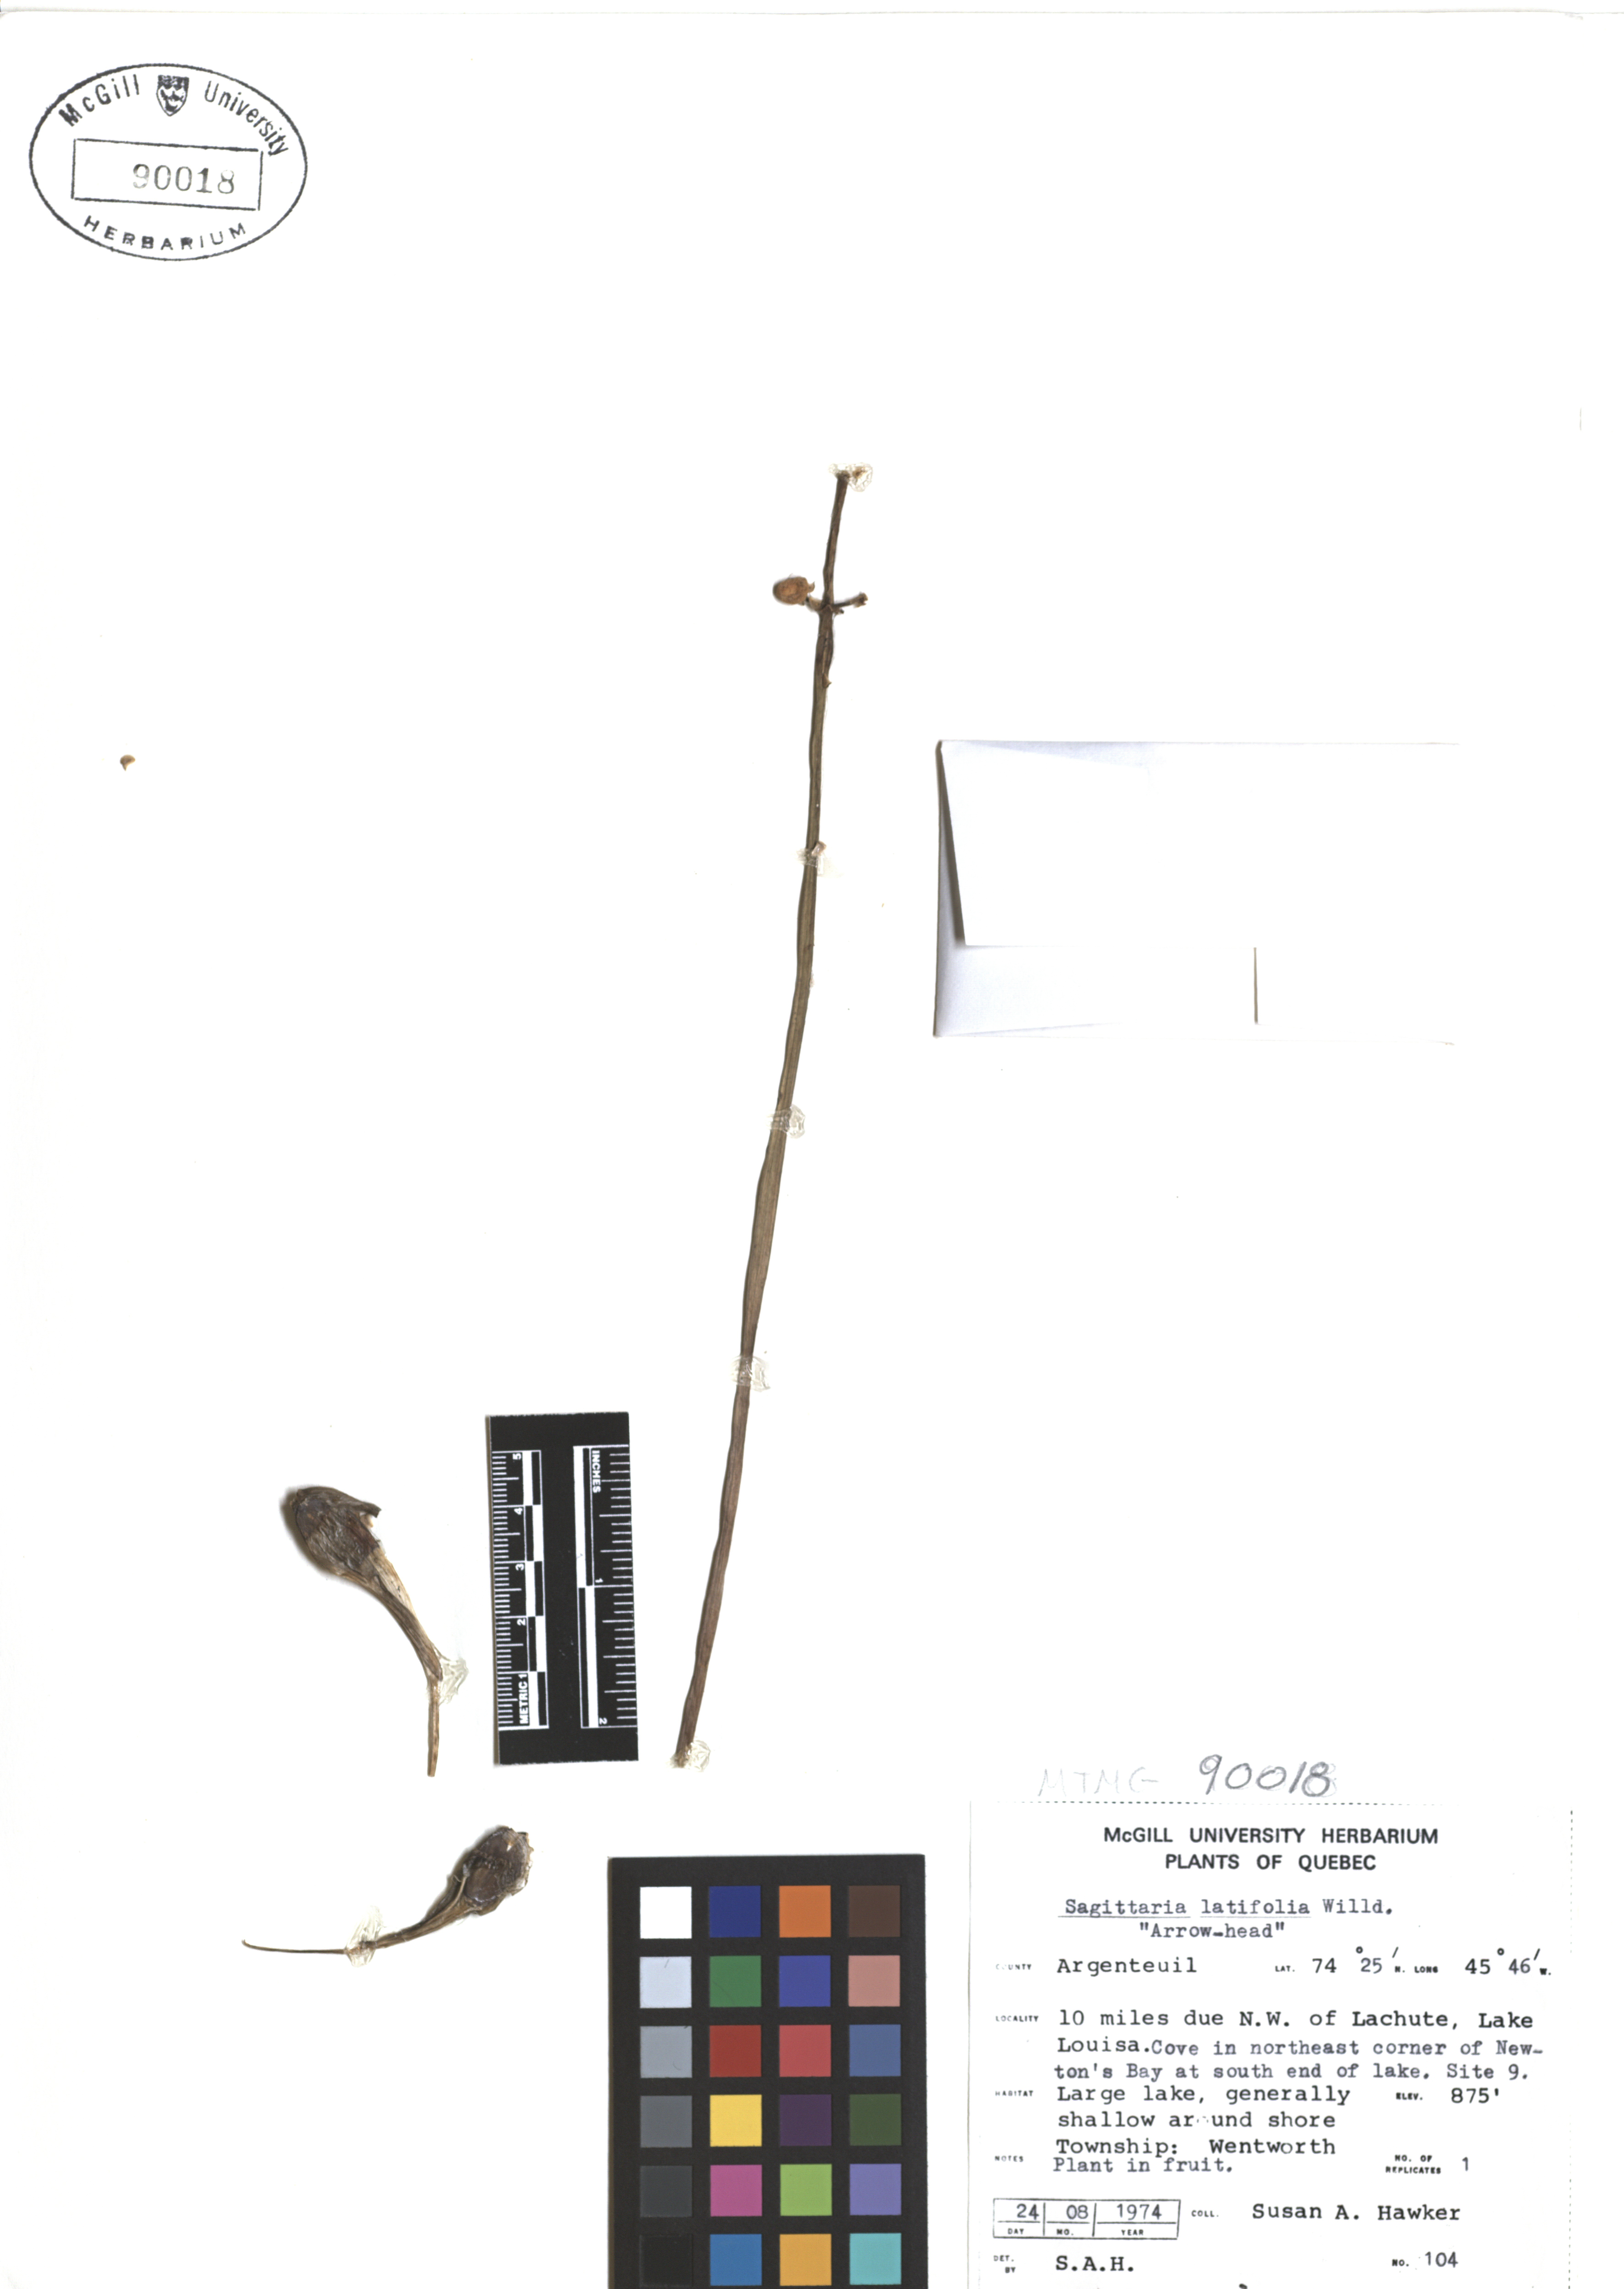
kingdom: Plantae
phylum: Tracheophyta
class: Liliopsida
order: Alismatales
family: Alismataceae
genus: Sagittaria
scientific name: Sagittaria latifolia
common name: Duck-potato
